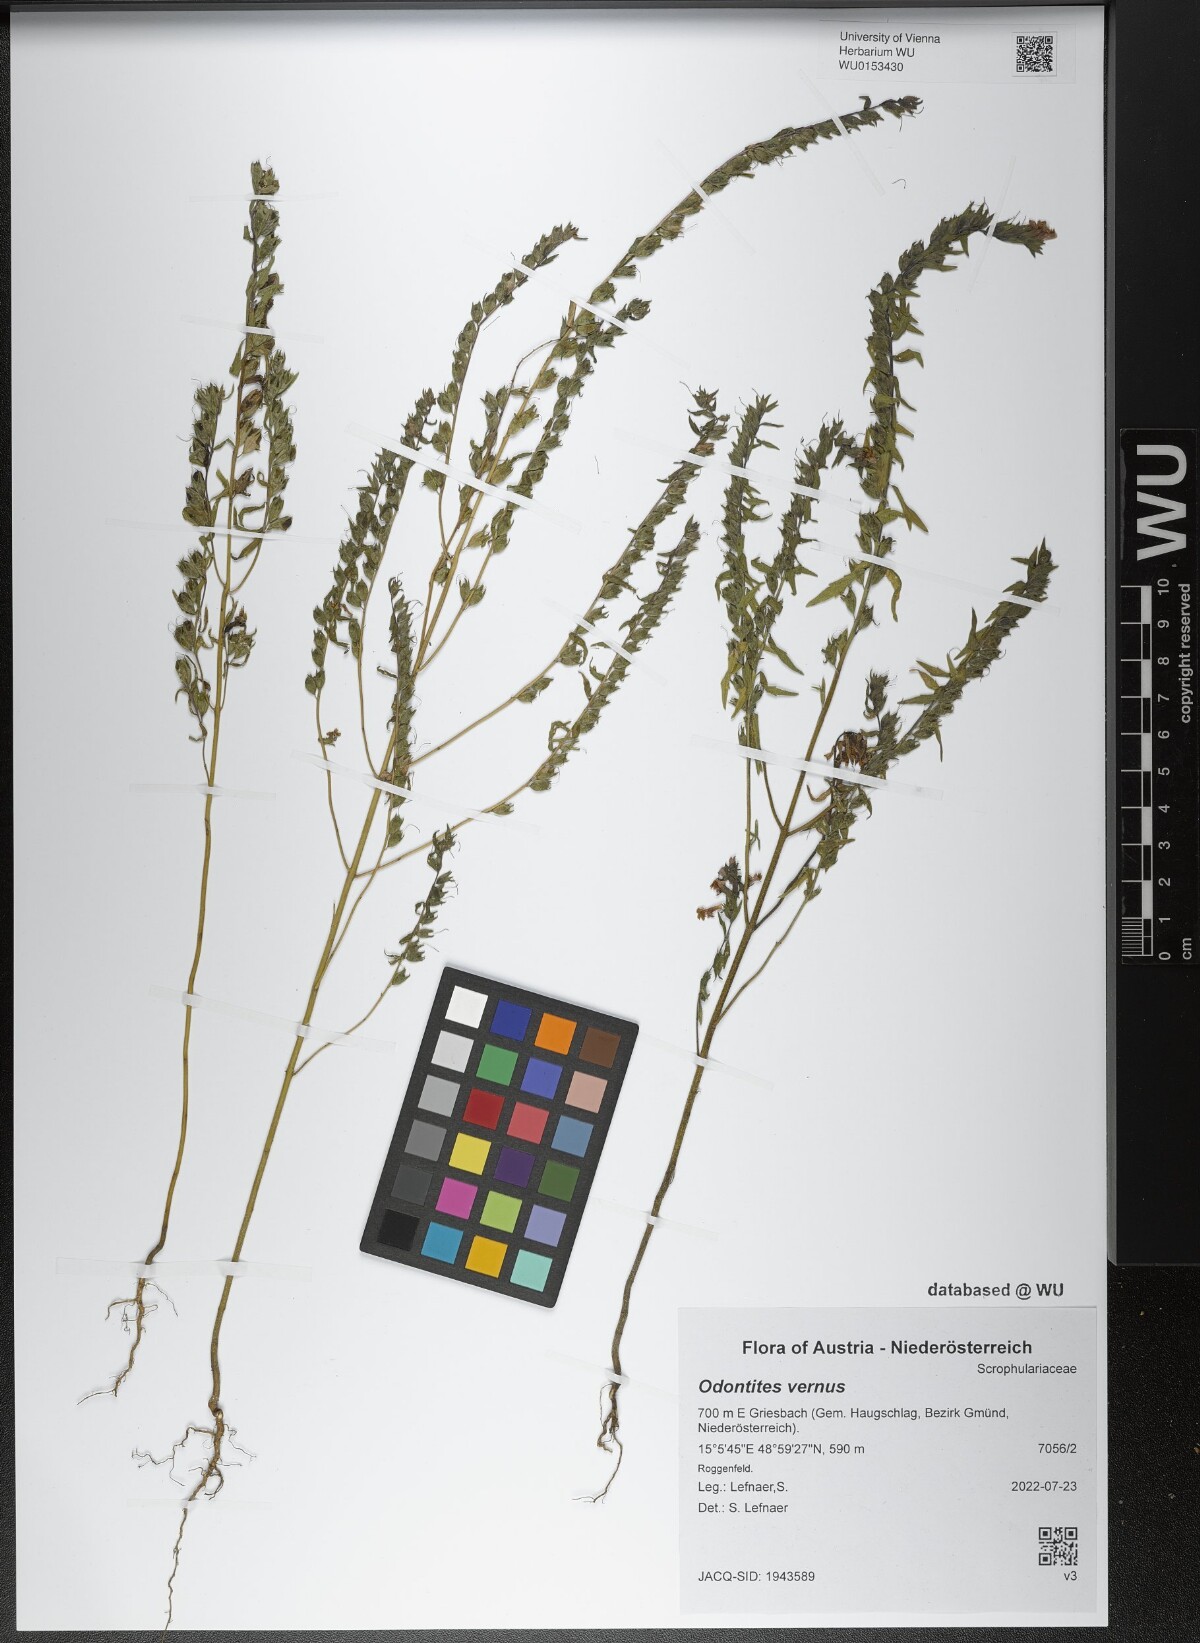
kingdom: Plantae
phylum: Tracheophyta
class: Magnoliopsida
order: Lamiales
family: Orobanchaceae
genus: Odontites
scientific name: Odontites vernus
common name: Red bartsia
